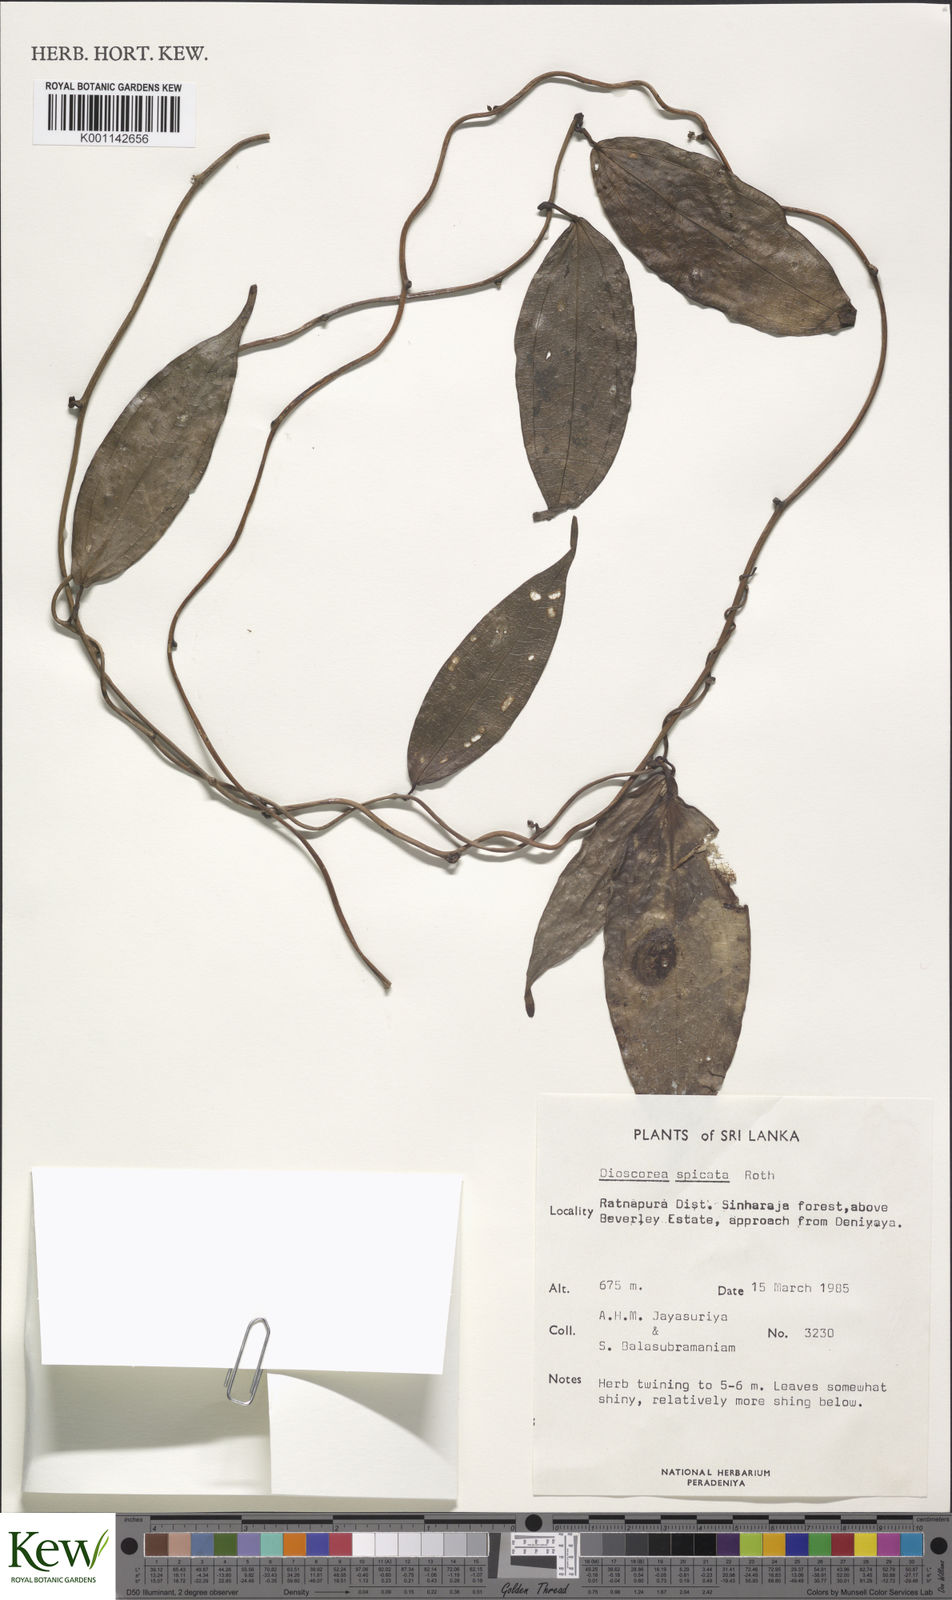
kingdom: Plantae
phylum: Tracheophyta
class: Liliopsida
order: Dioscoreales
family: Dioscoreaceae
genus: Dioscorea
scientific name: Dioscorea spicata
